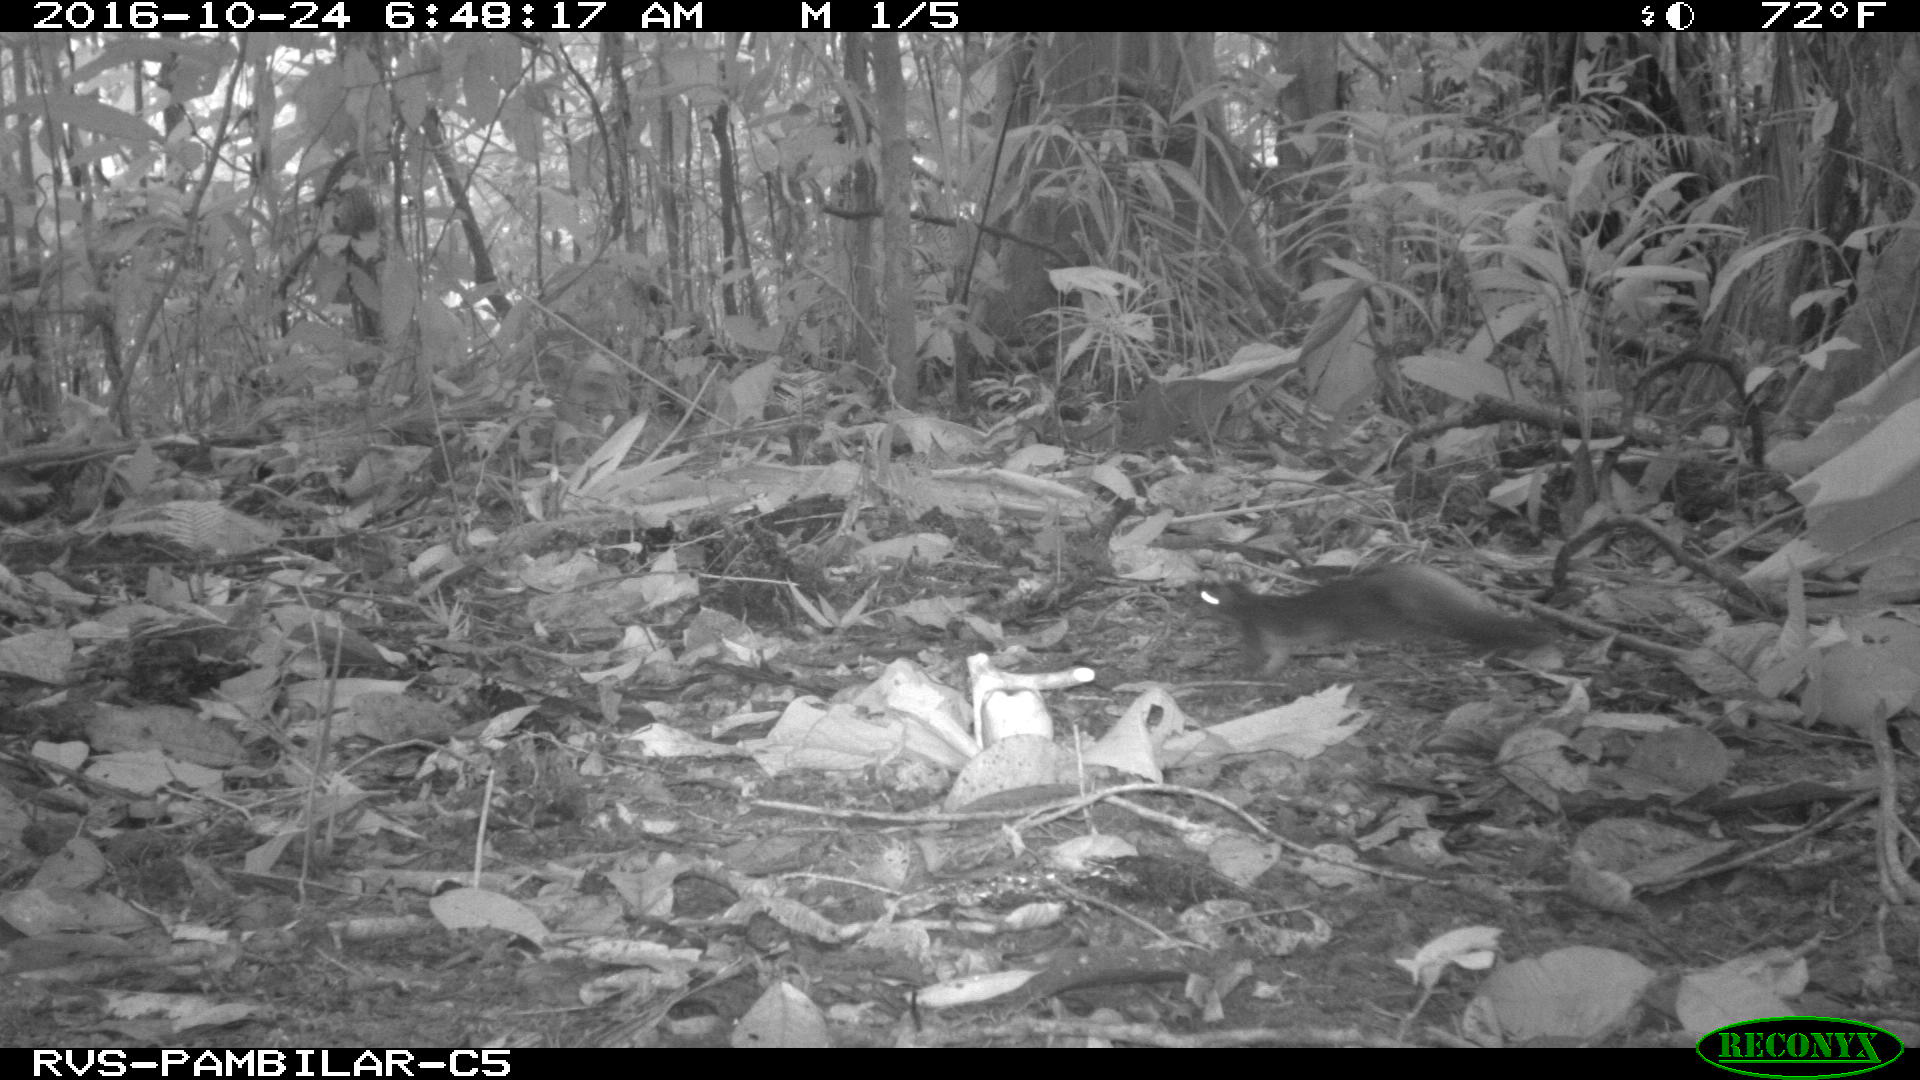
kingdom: Animalia
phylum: Chordata
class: Mammalia
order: Rodentia
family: Sciuridae
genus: Sciurus
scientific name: Sciurus granatensis
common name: Red-tailed squirrel
